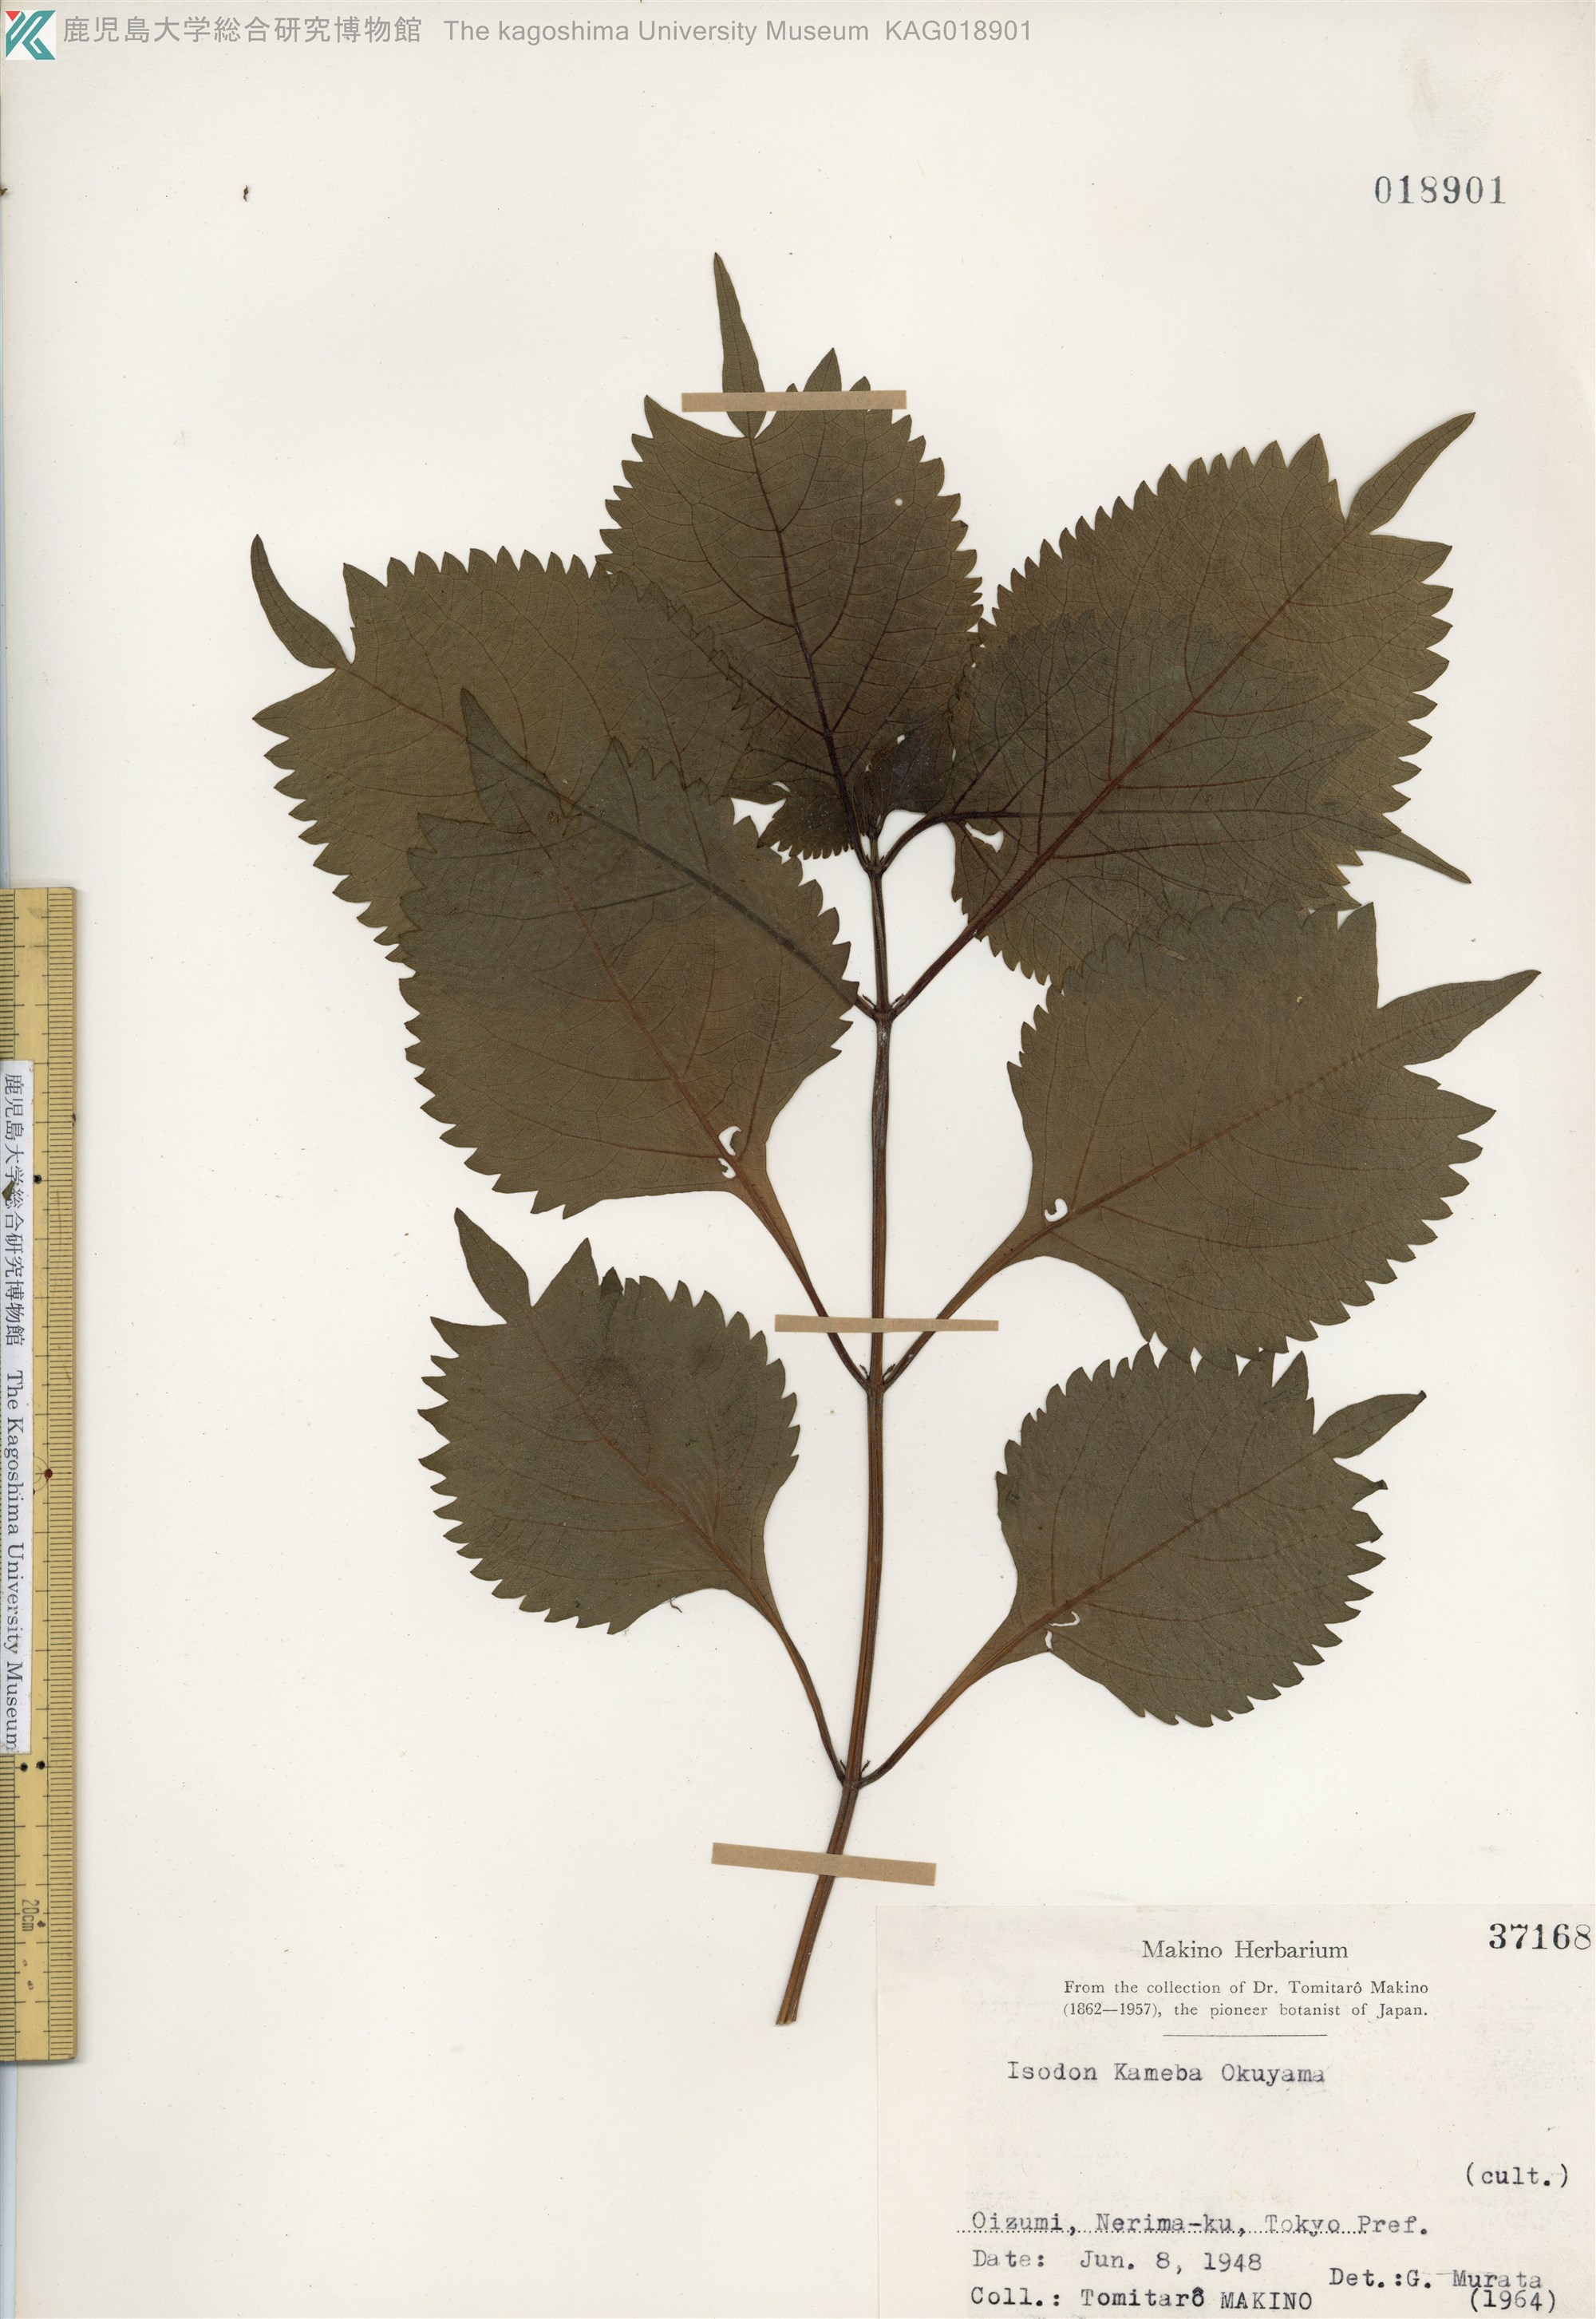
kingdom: Plantae
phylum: Tracheophyta
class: Magnoliopsida
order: Lamiales
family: Lamiaceae
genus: Isodon
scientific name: Isodon umbrosus
